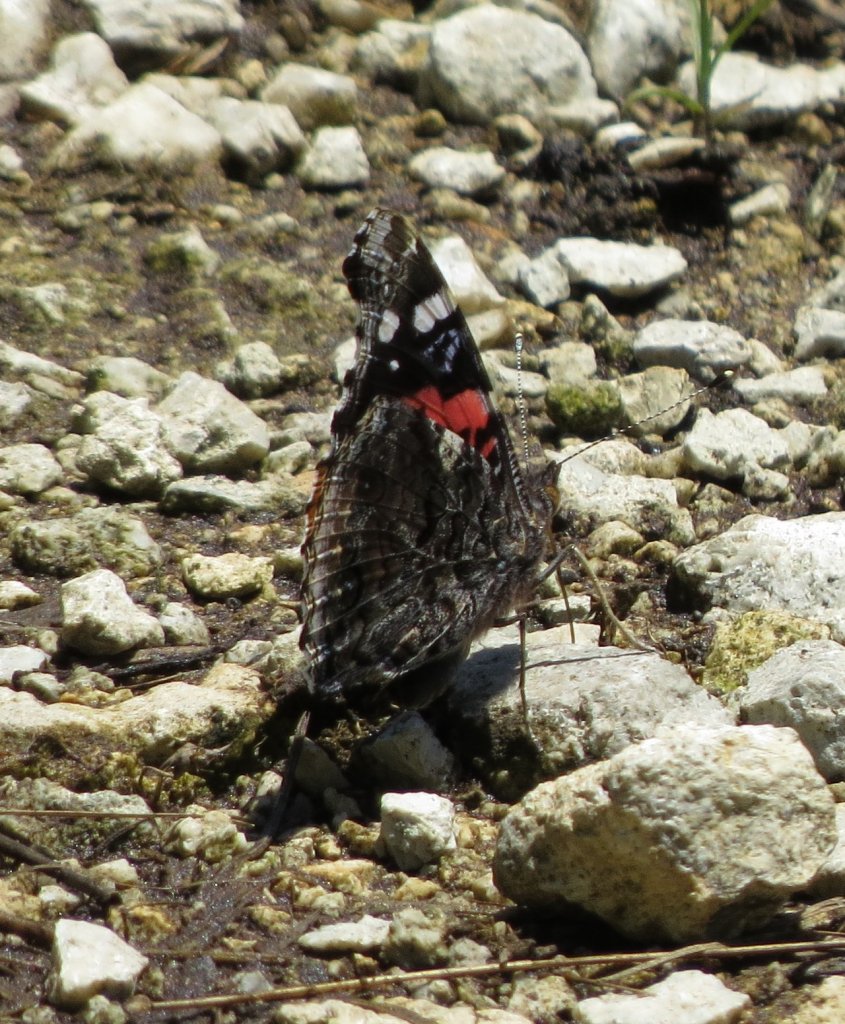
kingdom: Animalia
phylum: Arthropoda
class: Insecta
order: Lepidoptera
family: Nymphalidae
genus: Vanessa
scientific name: Vanessa atalanta
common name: Red Admiral
